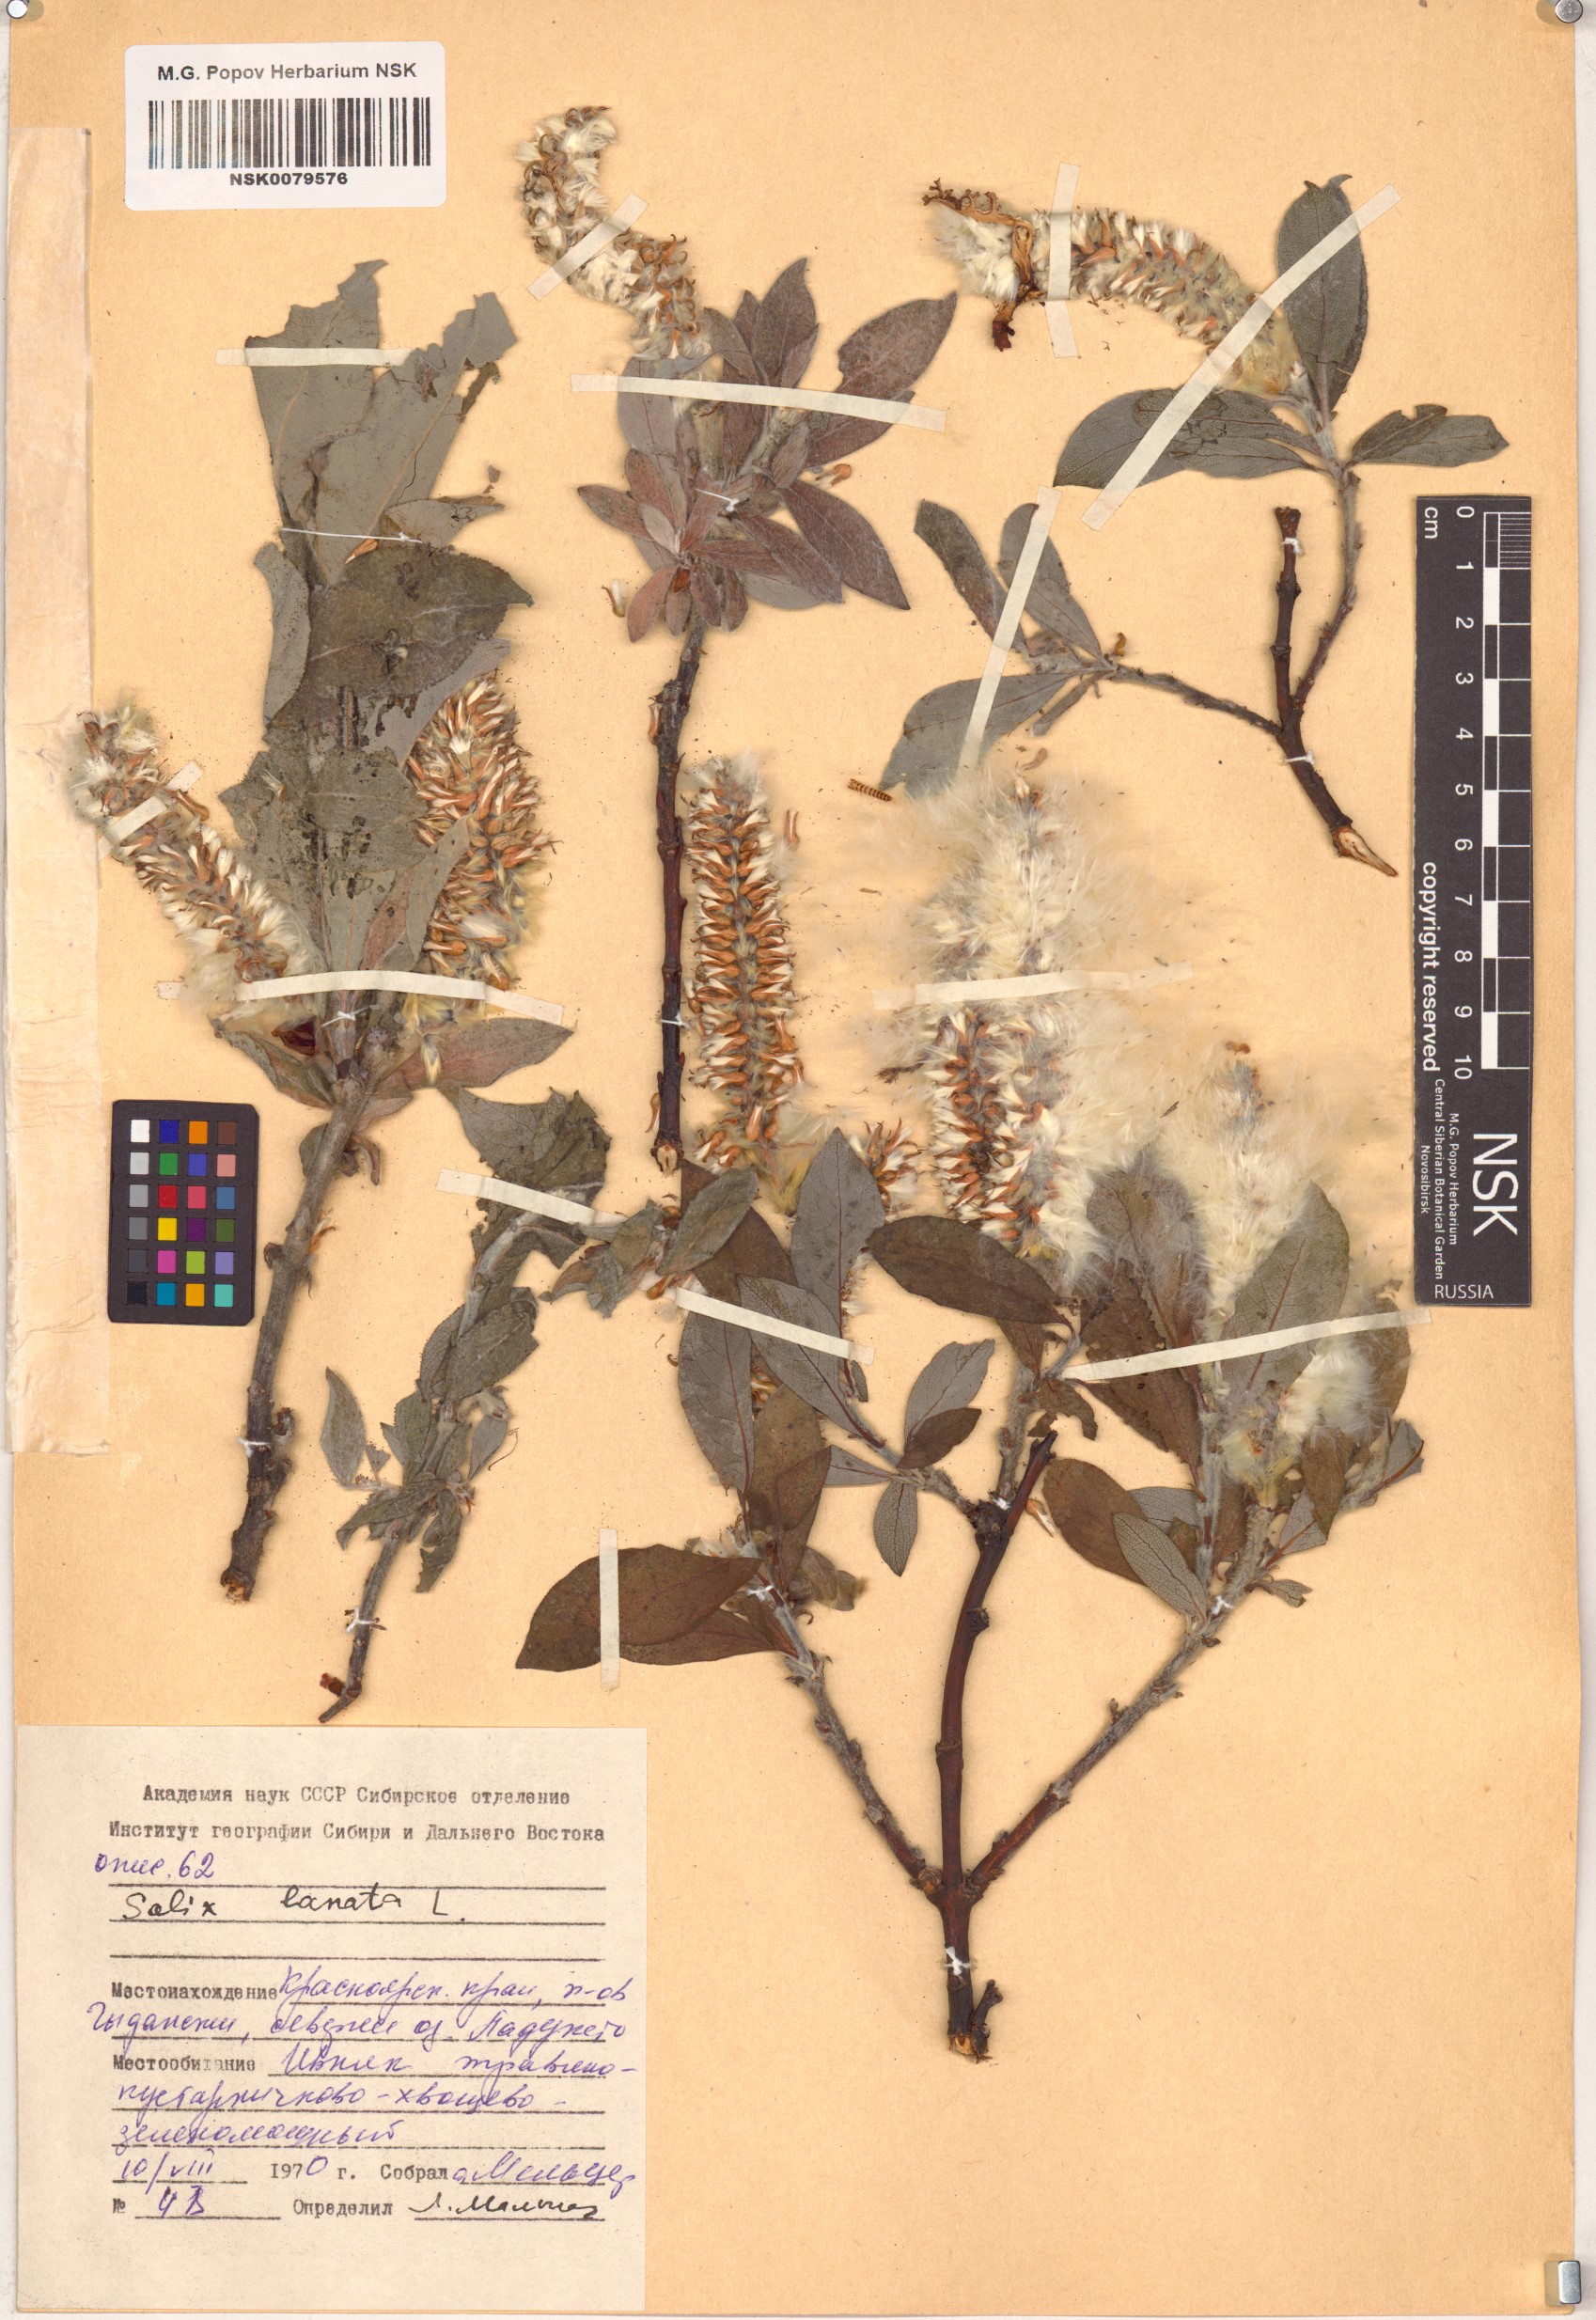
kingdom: Plantae
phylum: Tracheophyta
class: Magnoliopsida
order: Malpighiales
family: Salicaceae
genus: Salix
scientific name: Salix lanata
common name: Woolly willow
